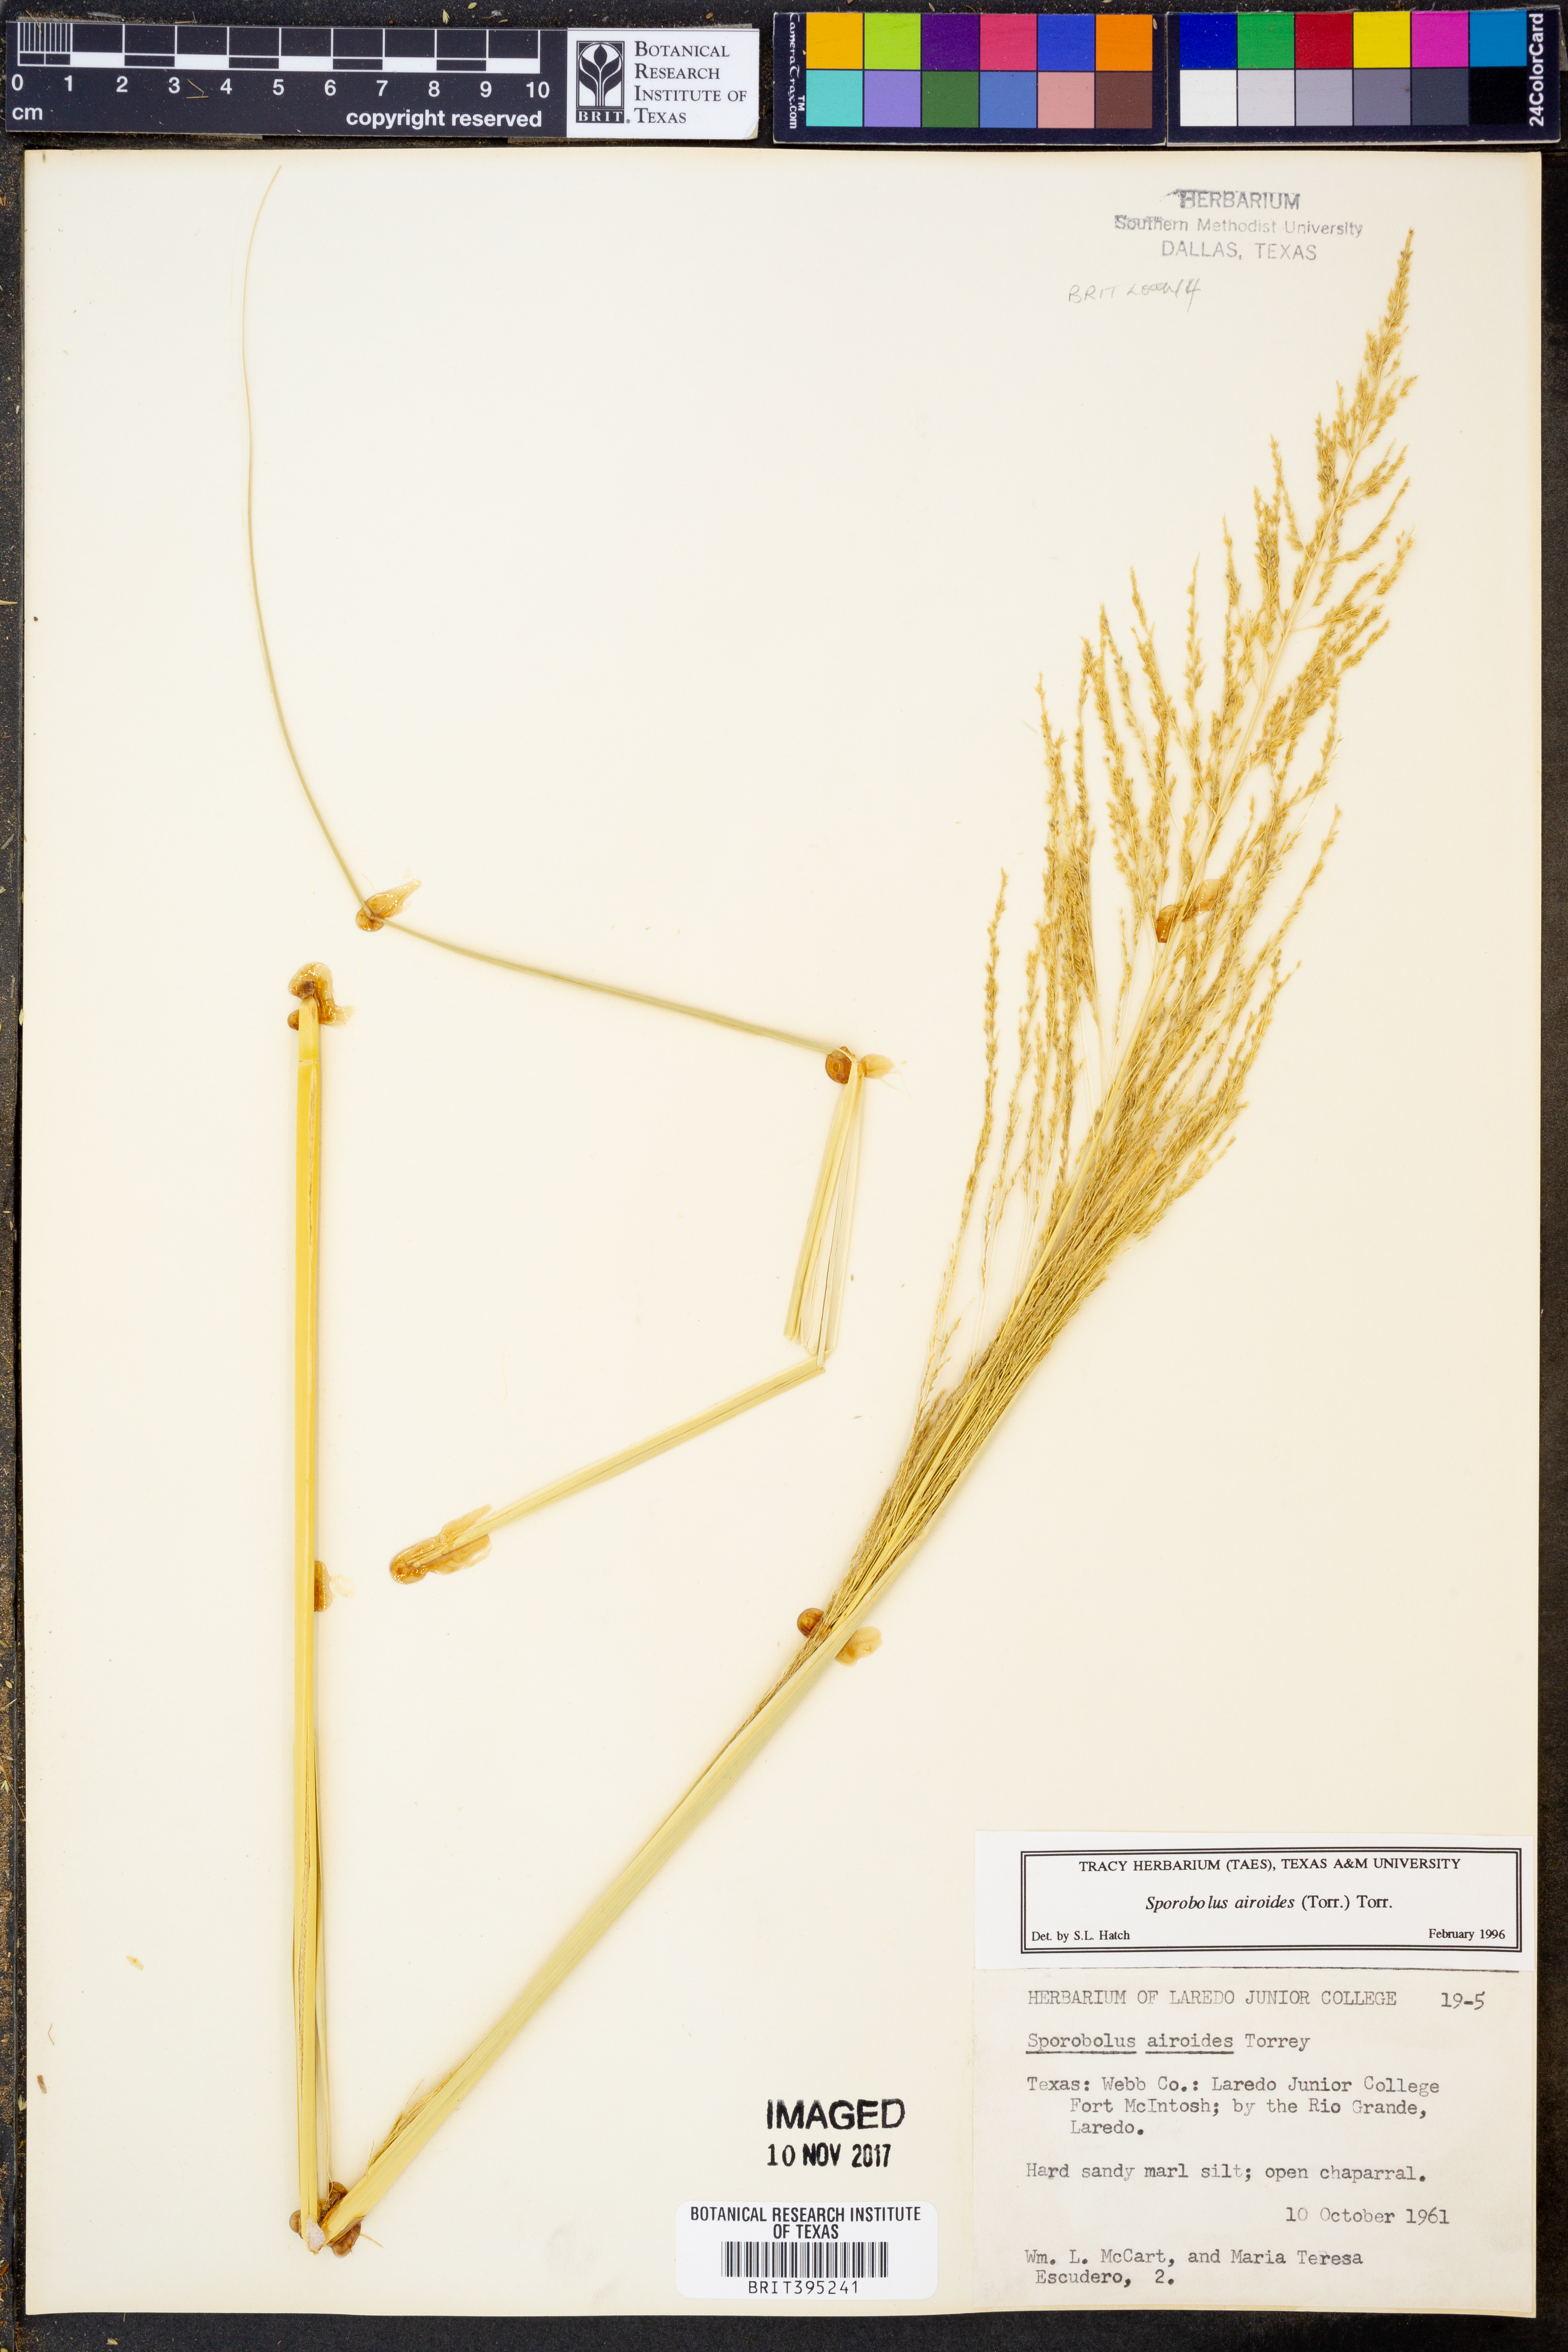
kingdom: Plantae
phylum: Tracheophyta
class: Liliopsida
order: Poales
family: Poaceae
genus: Sporobolus
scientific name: Sporobolus airoides
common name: Alkali sacaton
